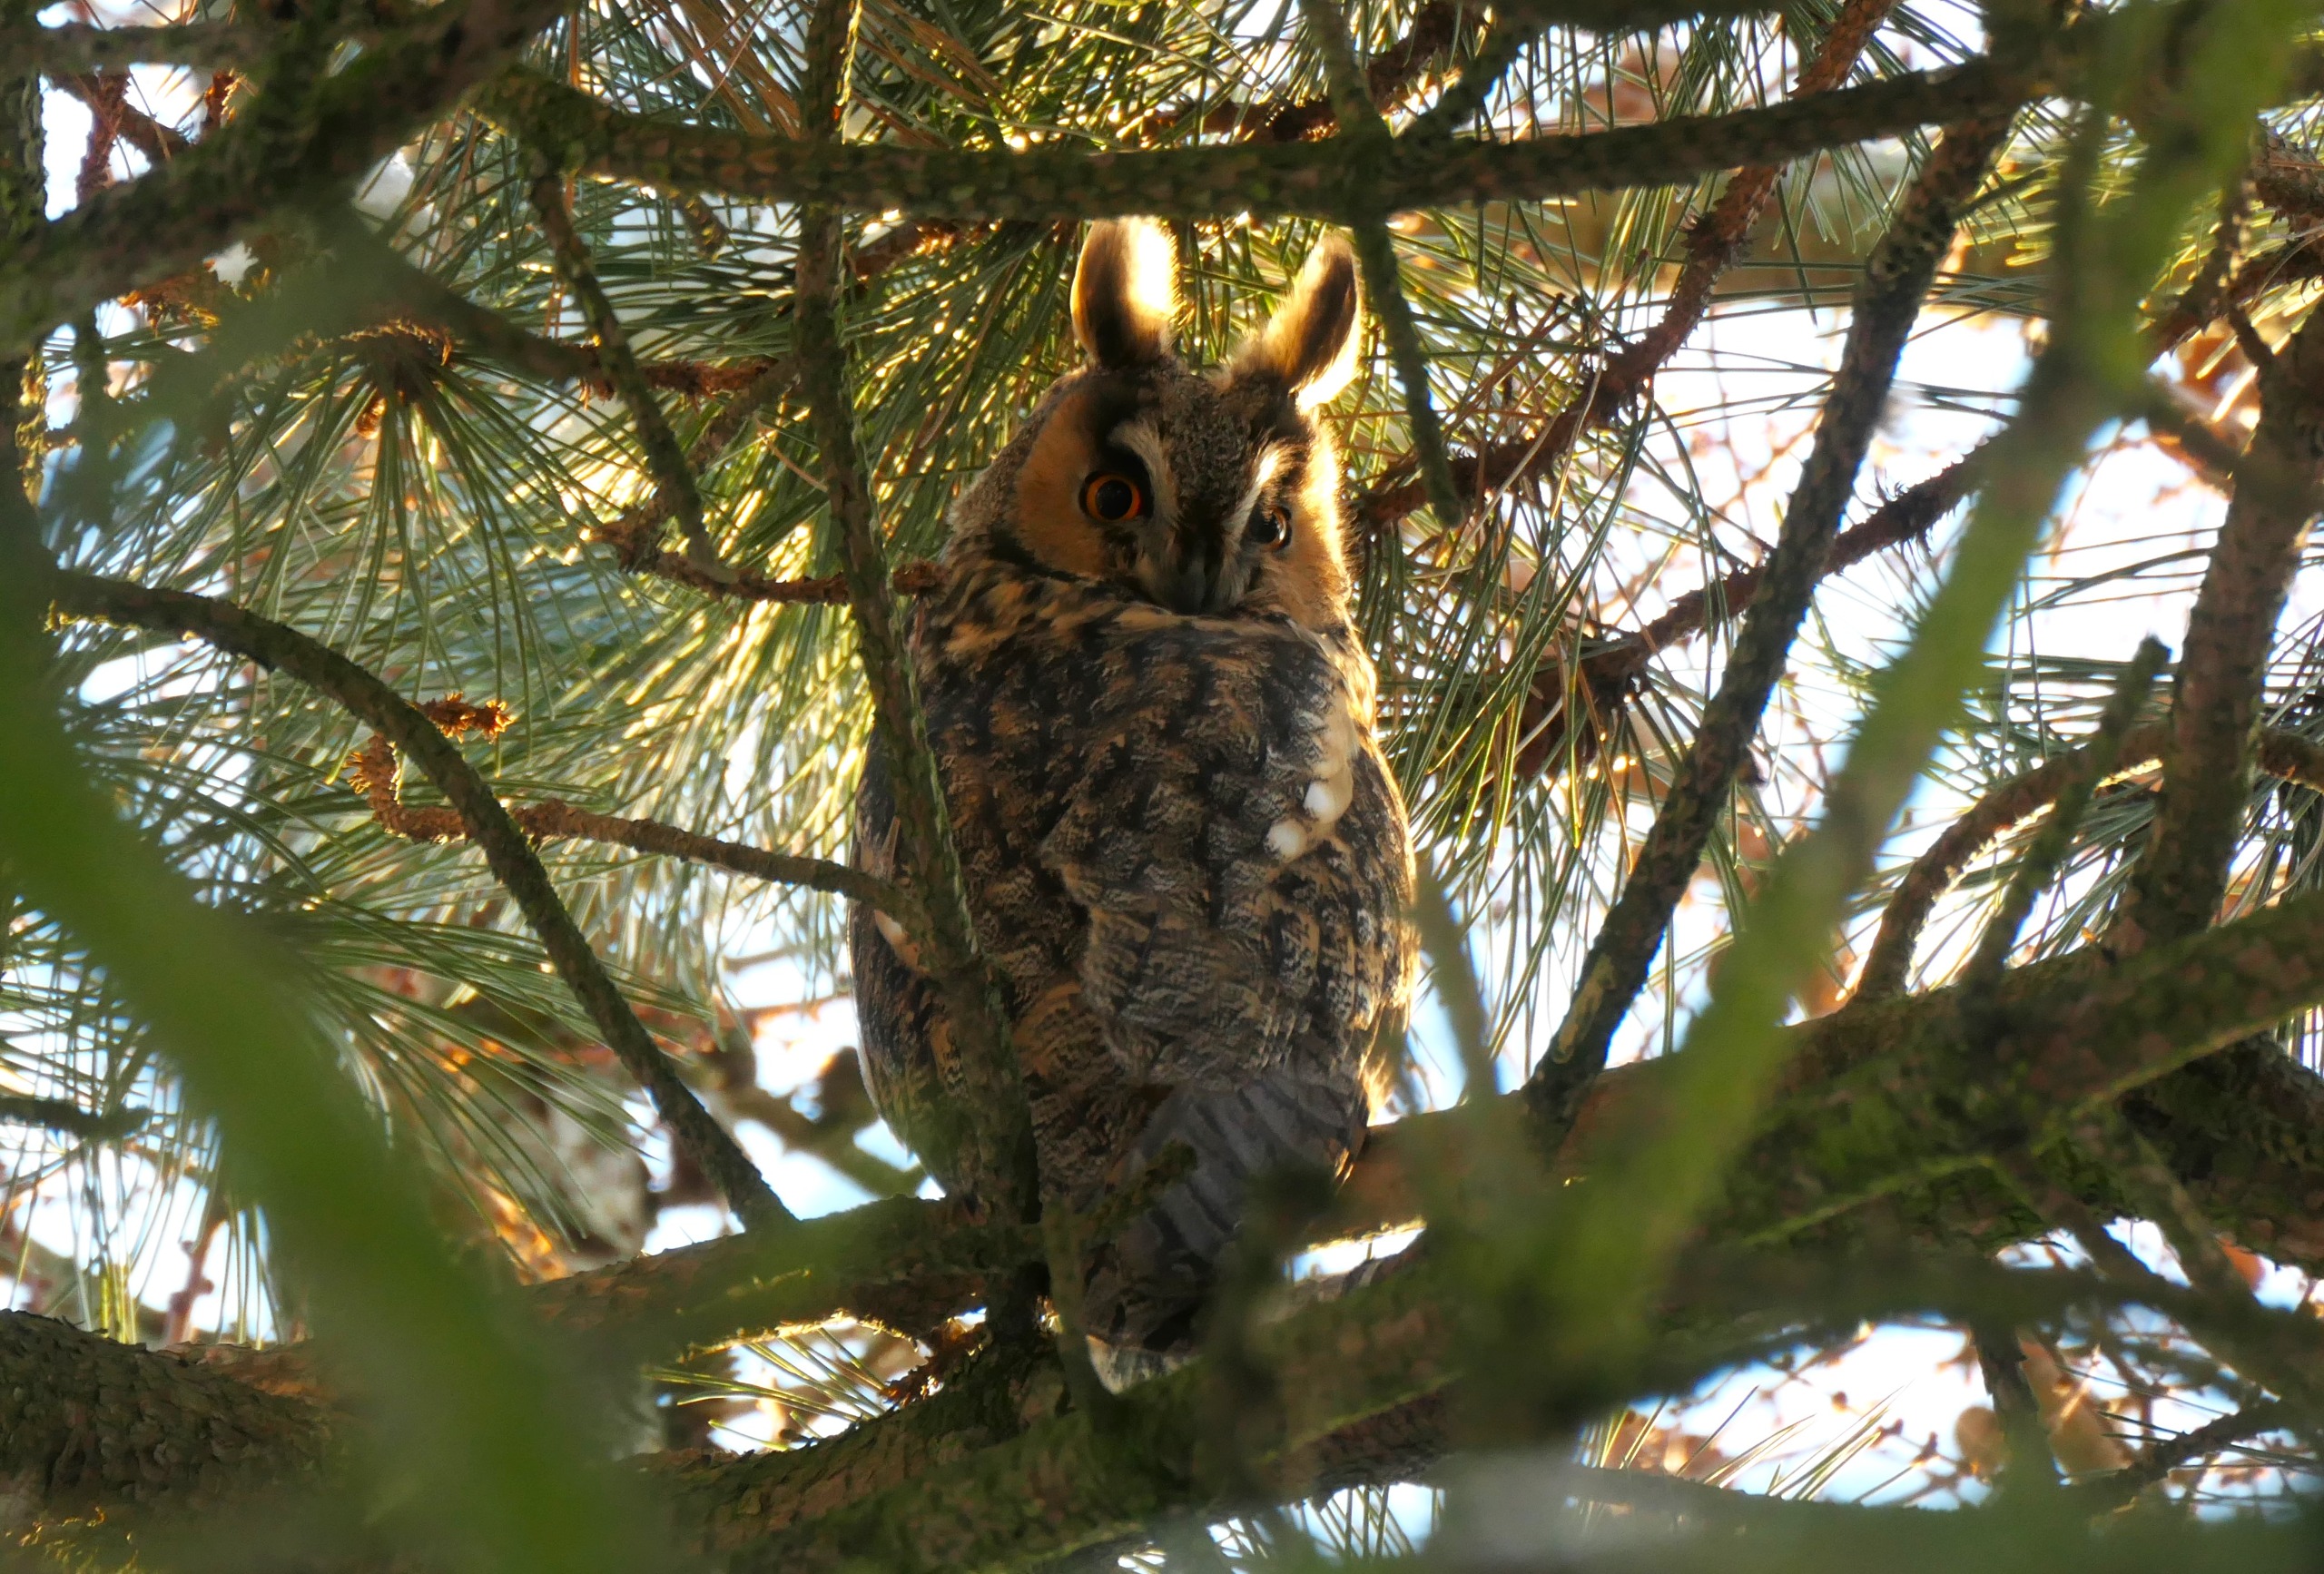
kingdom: Animalia
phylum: Chordata
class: Aves
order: Strigiformes
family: Strigidae
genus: Asio
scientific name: Asio otus
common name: Skovhornugle
